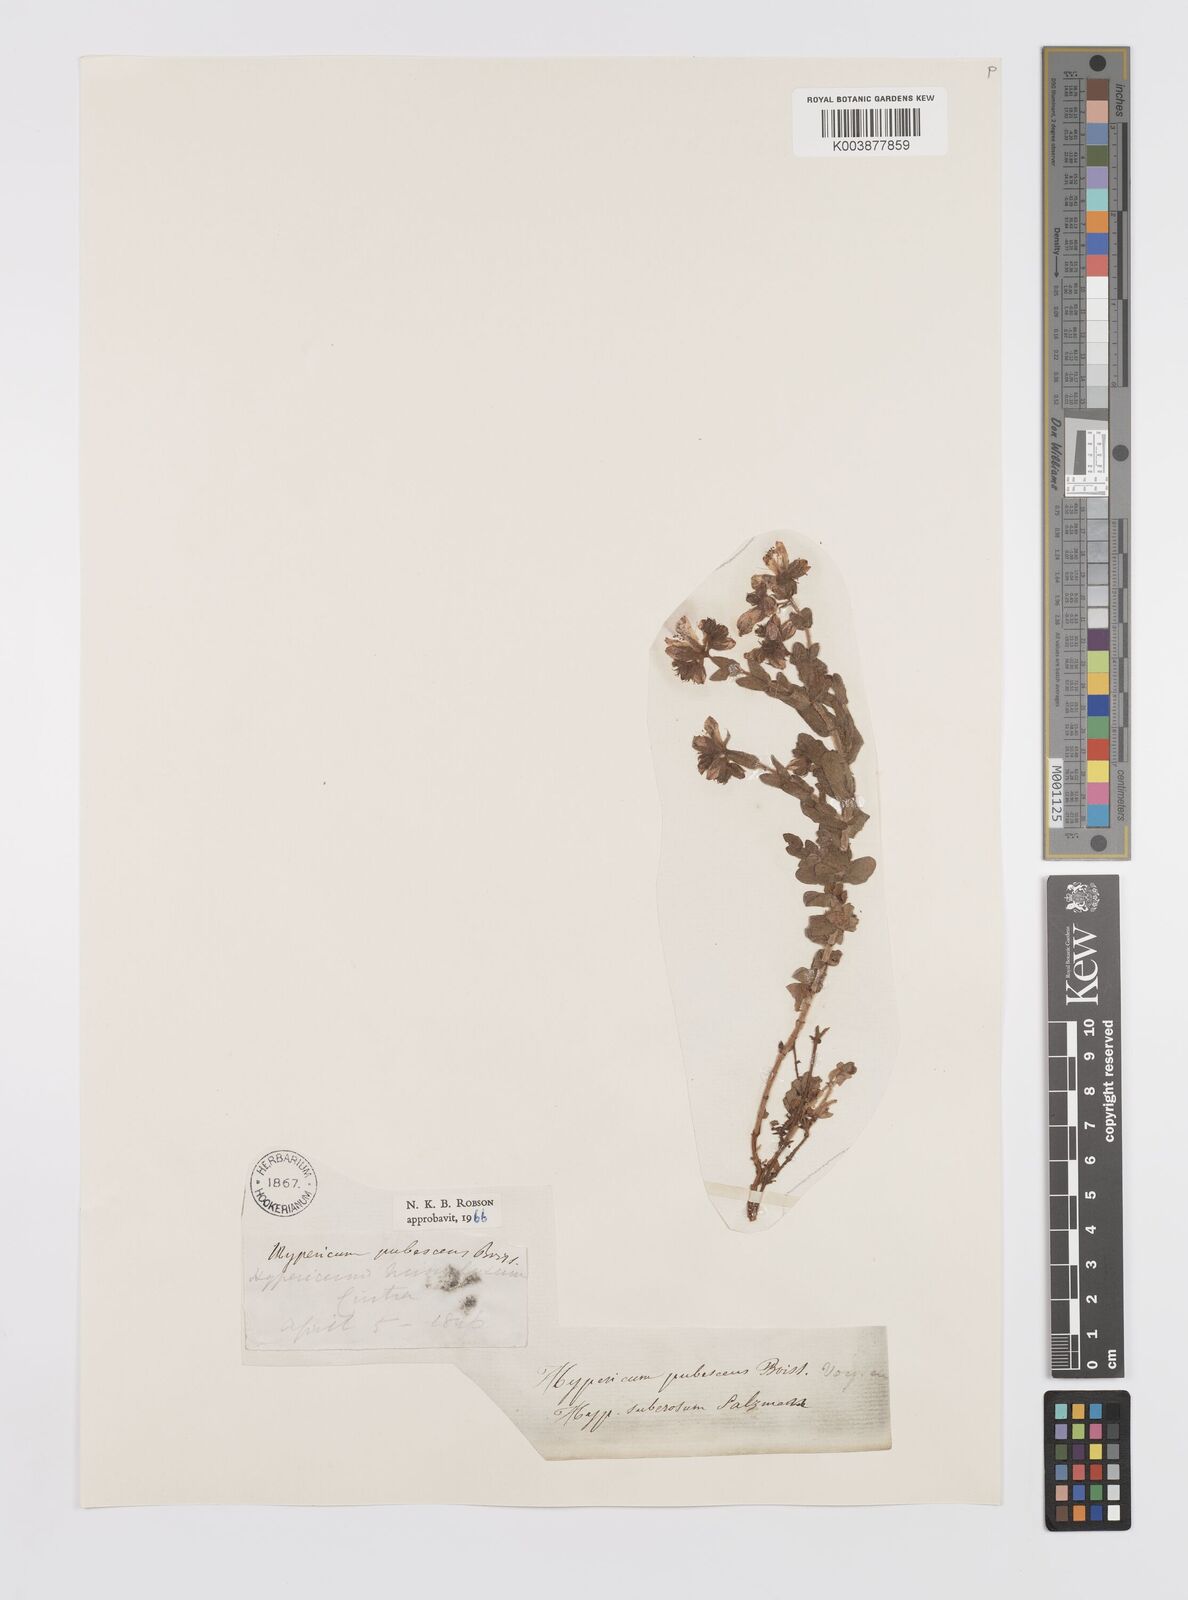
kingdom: Plantae
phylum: Tracheophyta
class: Magnoliopsida
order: Malpighiales
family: Hypericaceae
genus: Hypericum
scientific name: Hypericum pubescens
